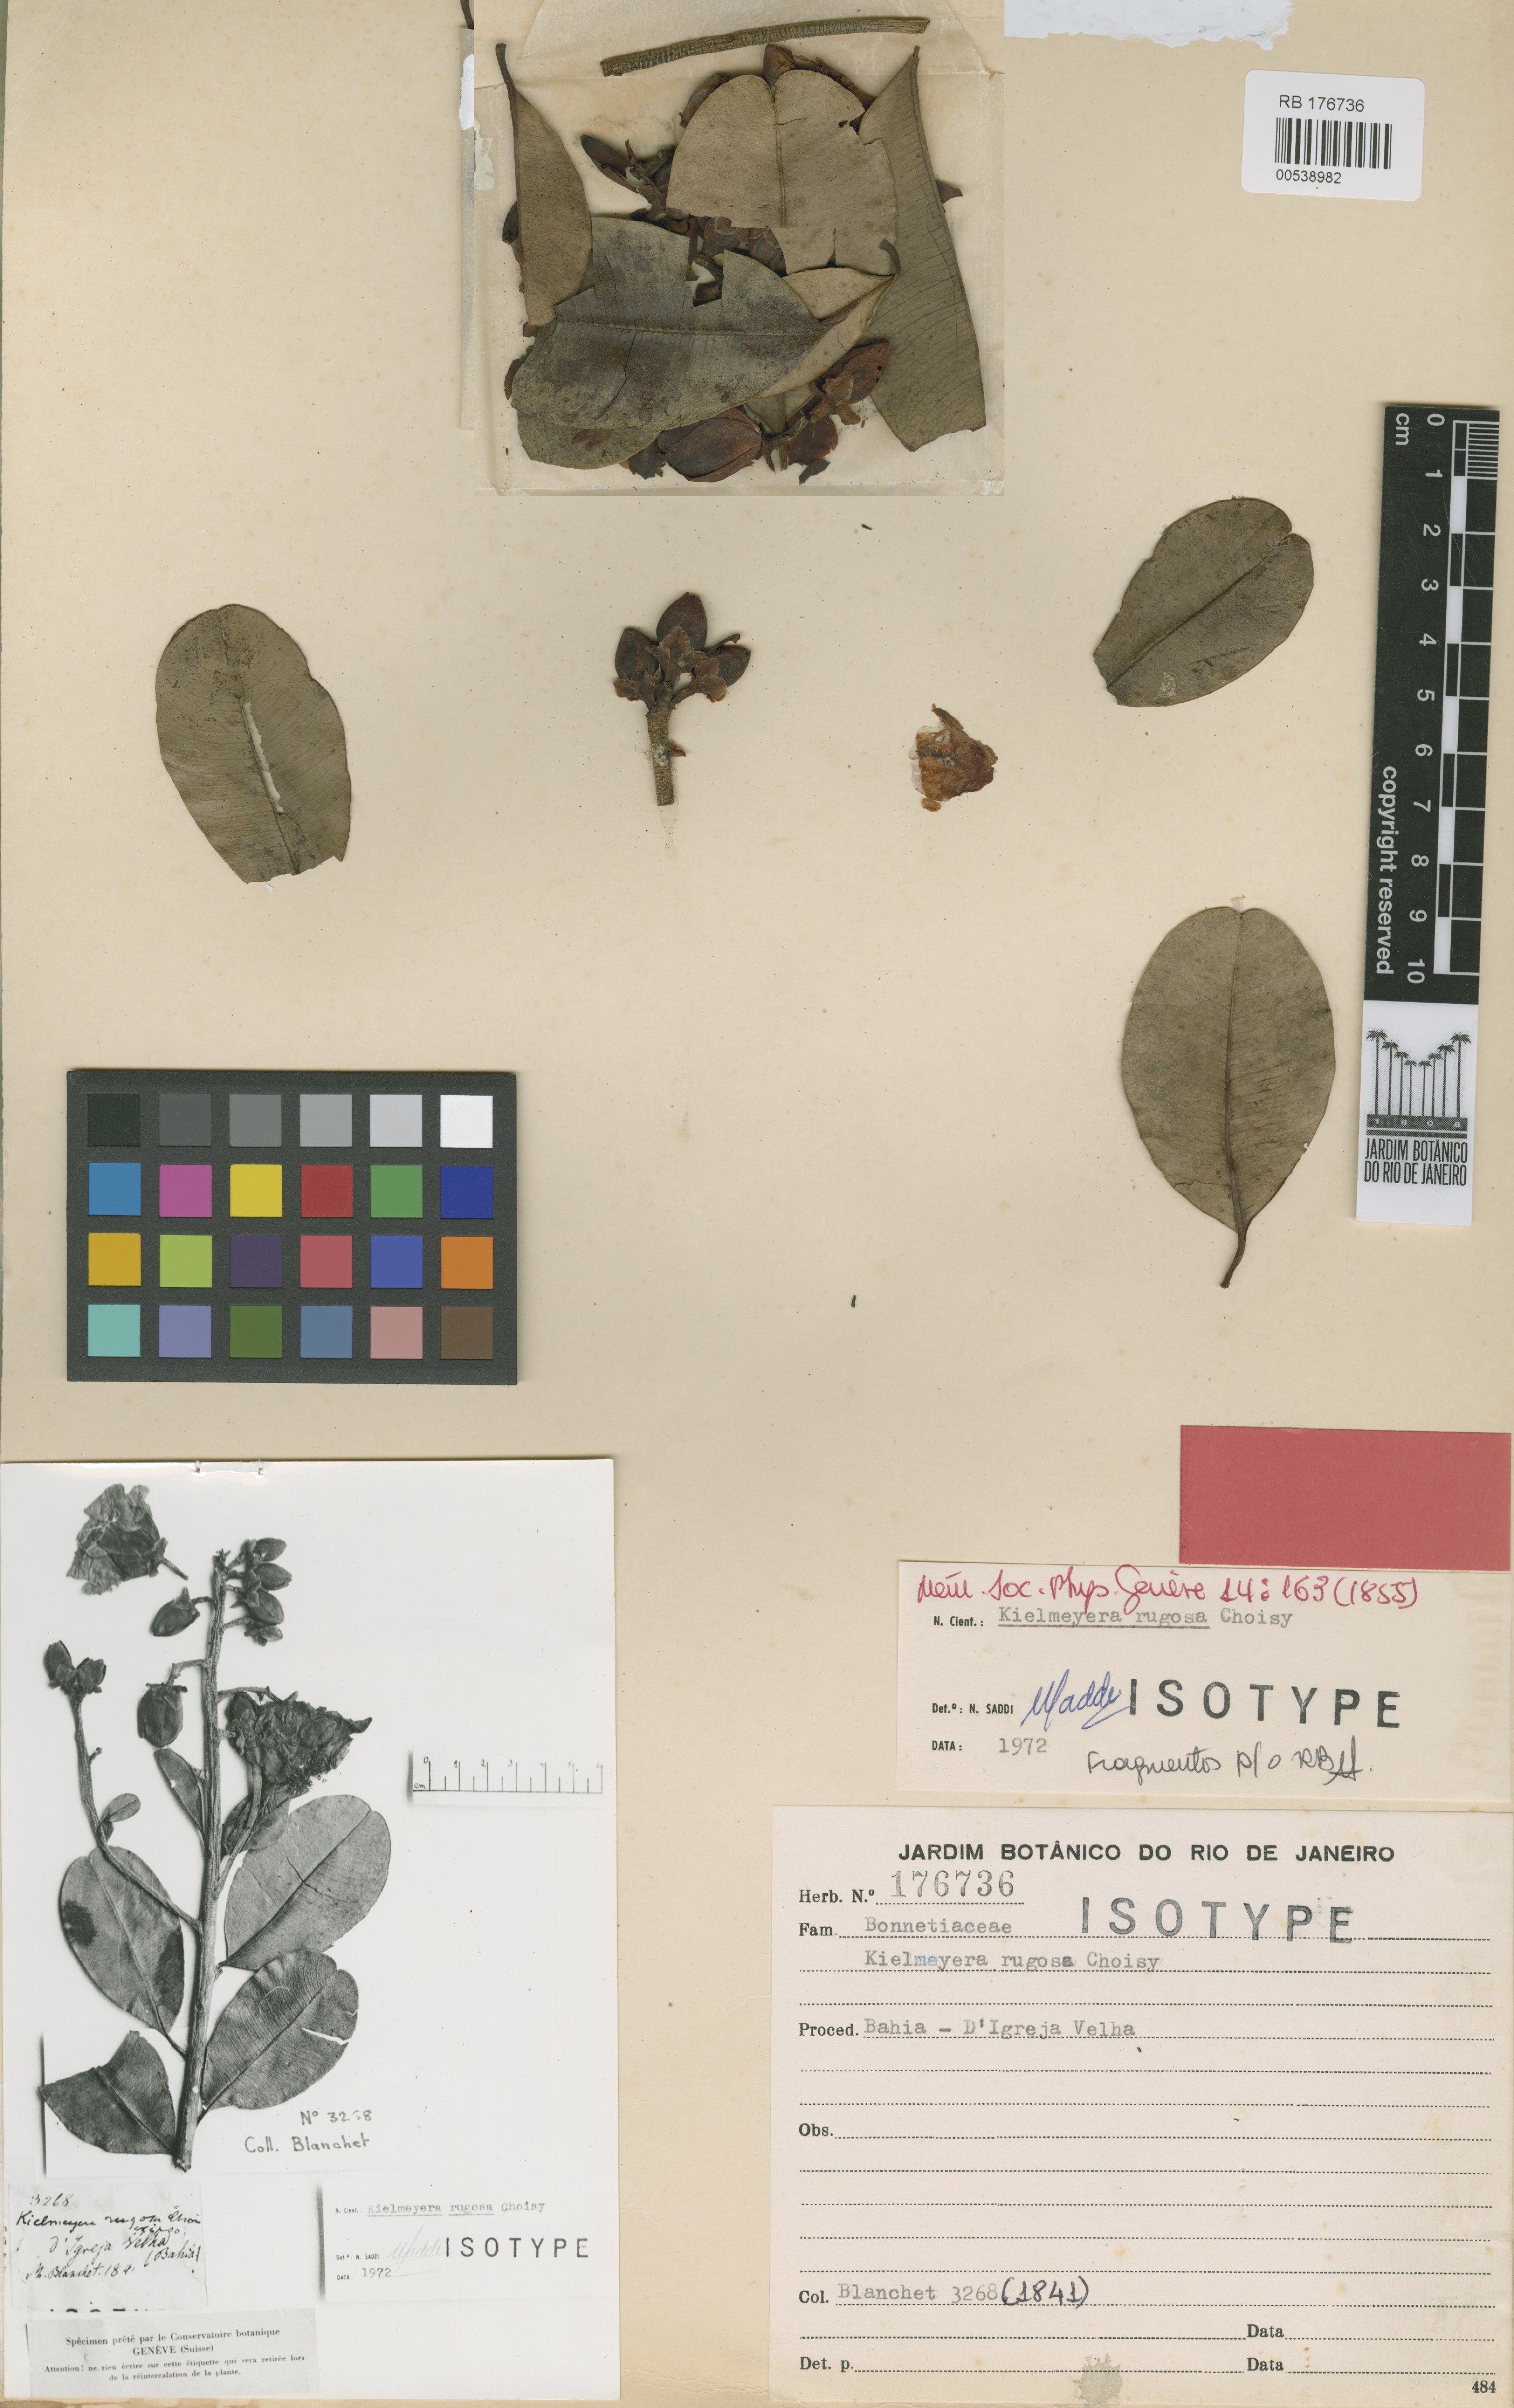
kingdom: Plantae
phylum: Tracheophyta
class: Magnoliopsida
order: Malpighiales
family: Calophyllaceae
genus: Kielmeyera
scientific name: Kielmeyera rugosa
